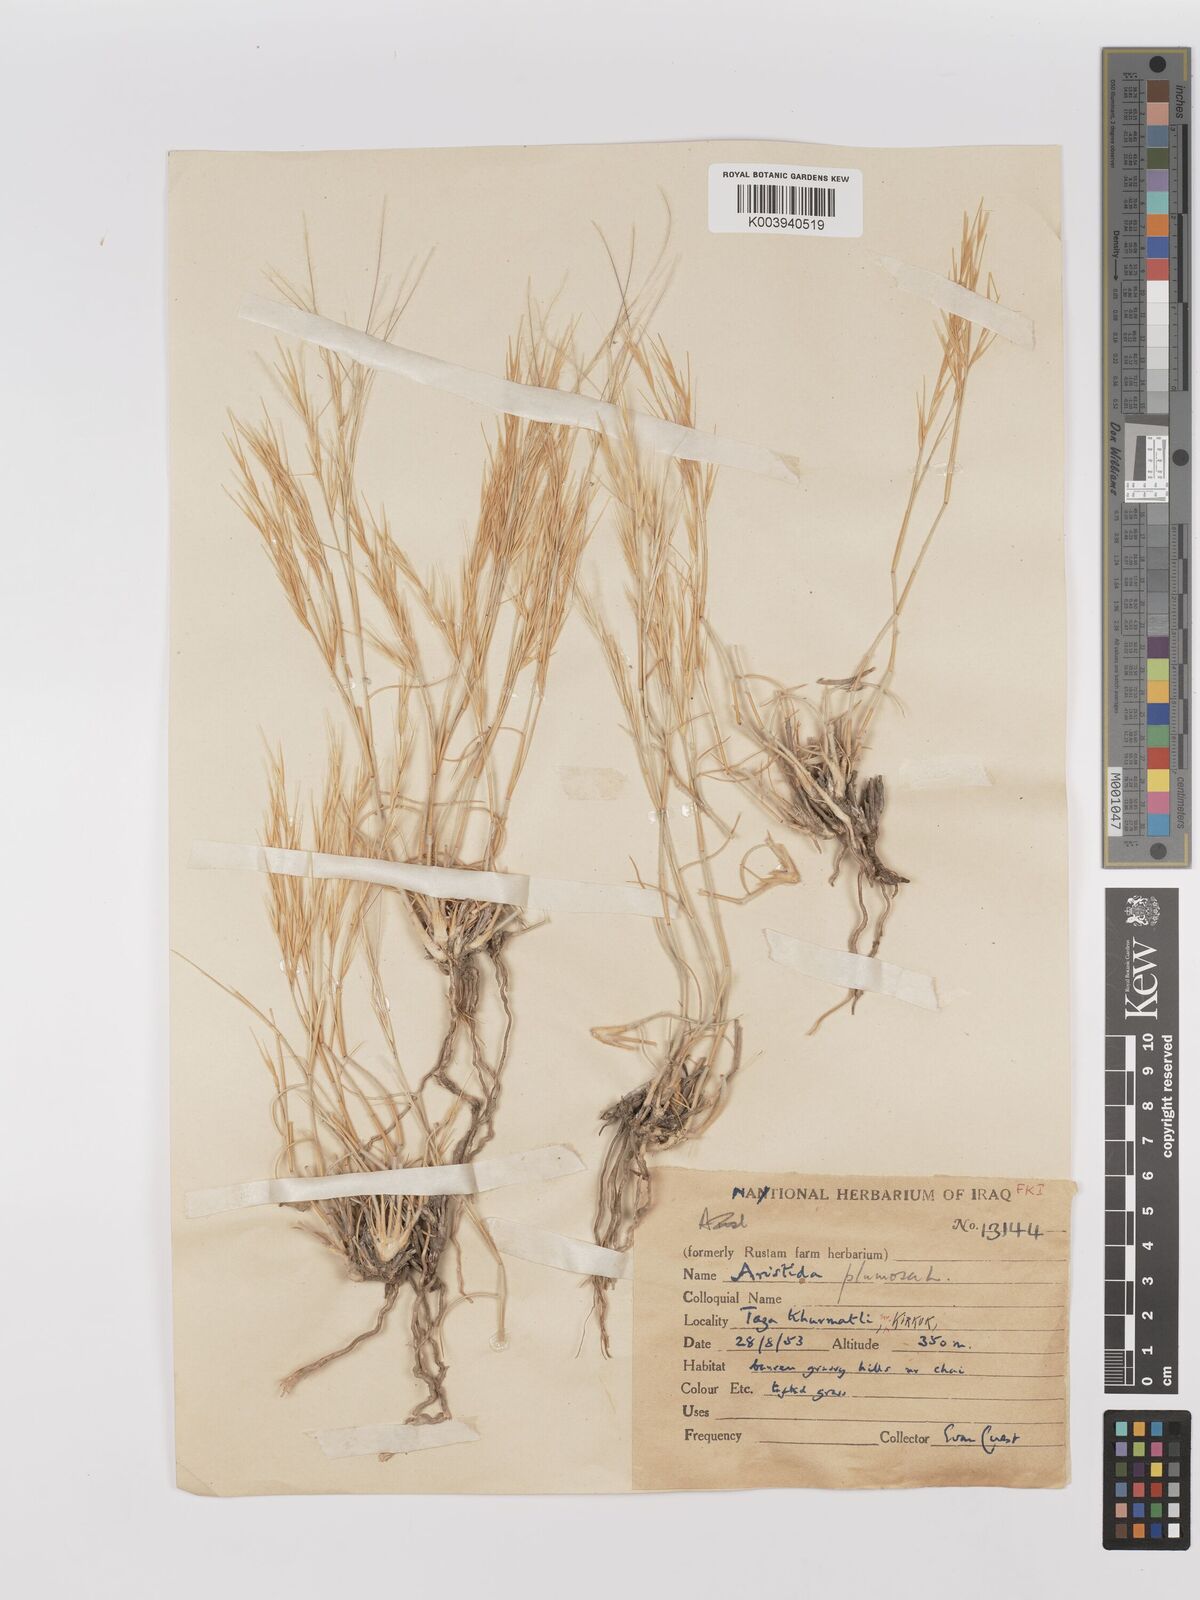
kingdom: Plantae
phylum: Tracheophyta
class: Liliopsida
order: Poales
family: Poaceae
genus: Stipagrostis
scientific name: Stipagrostis plumosa
